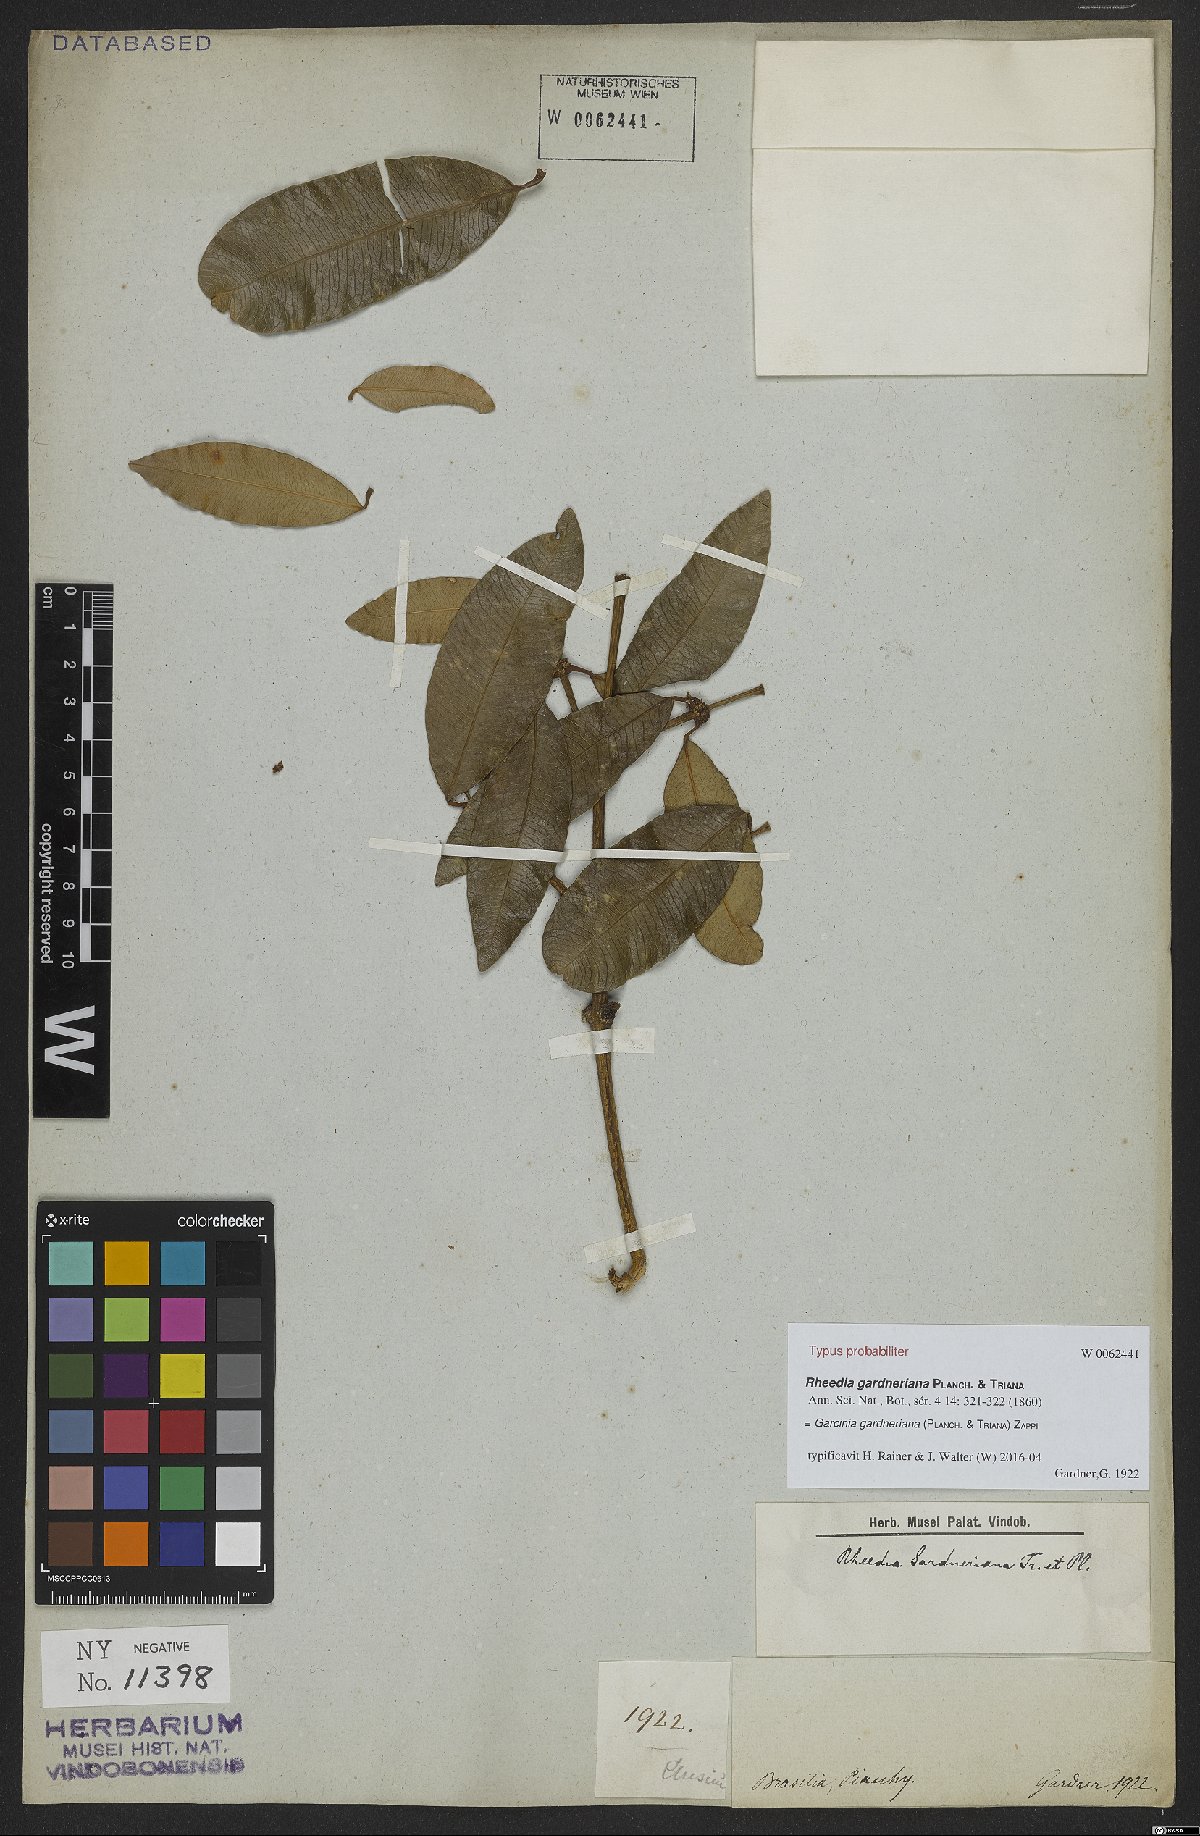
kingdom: Plantae
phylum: Tracheophyta
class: Magnoliopsida
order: Malpighiales
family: Clusiaceae
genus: Garcinia
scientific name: Garcinia gardneriana
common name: Achacha
